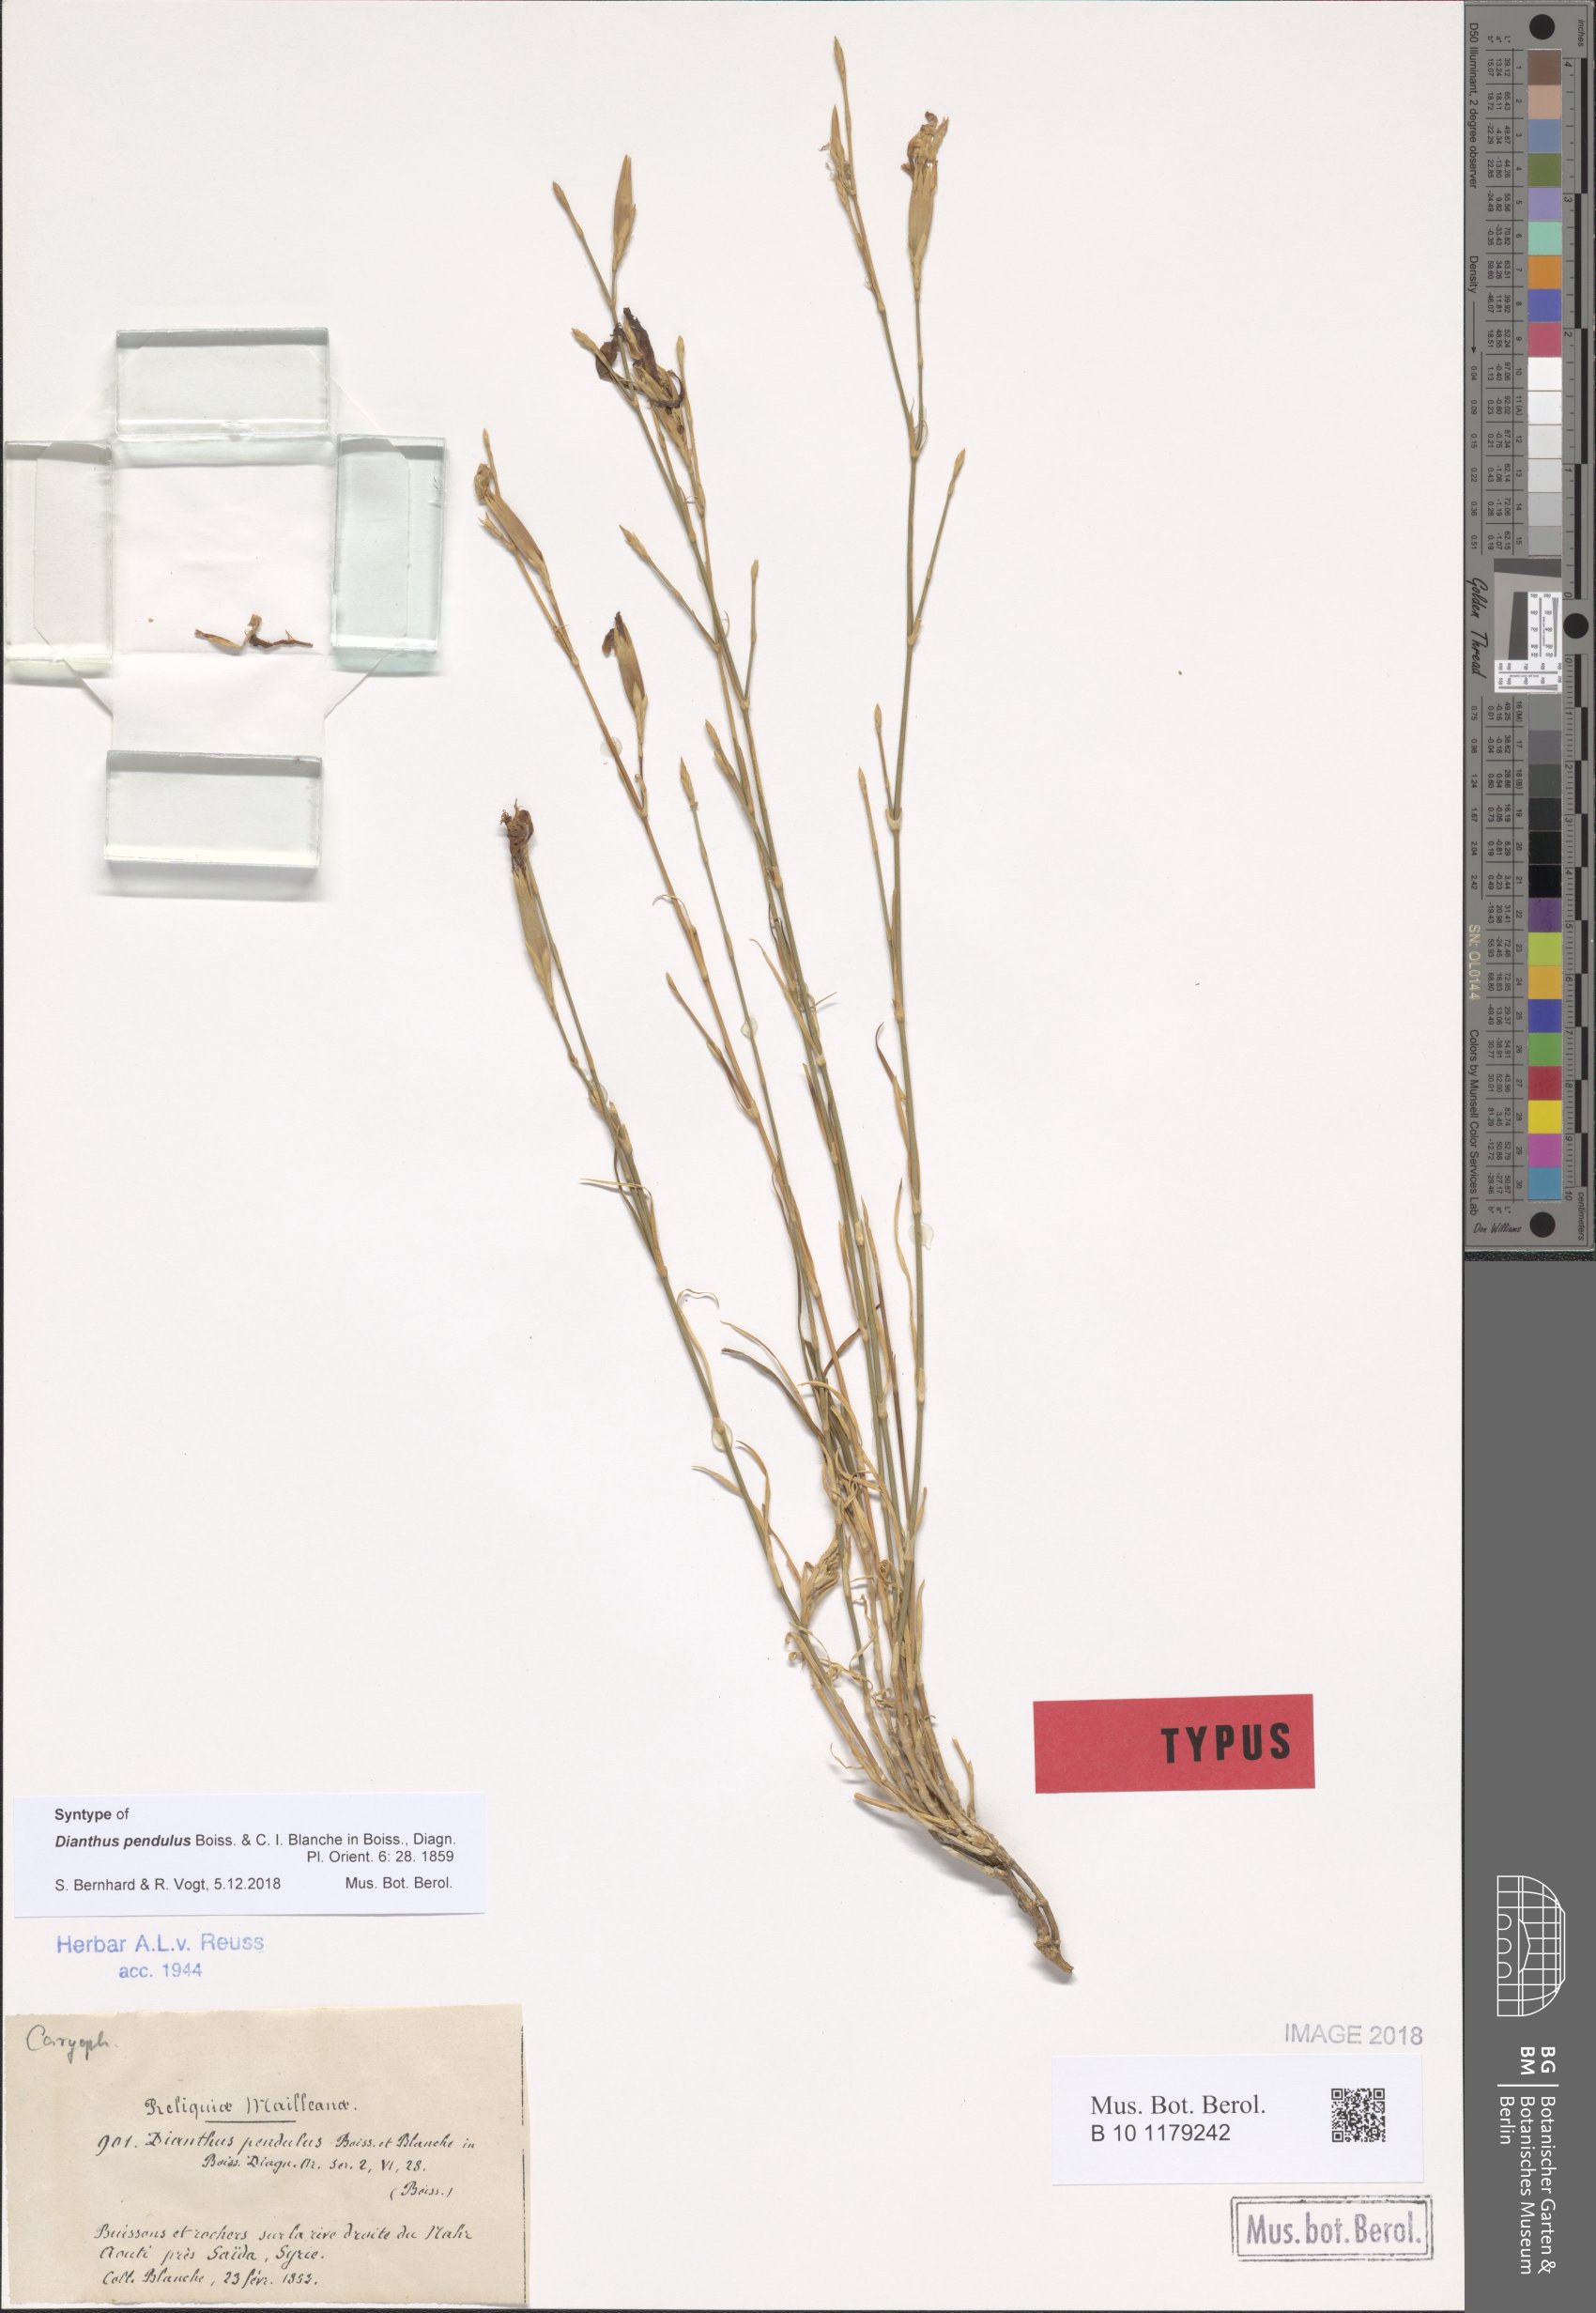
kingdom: Plantae
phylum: Tracheophyta
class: Magnoliopsida
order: Caryophyllales
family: Caryophyllaceae
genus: Dianthus
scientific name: Dianthus pendulus
